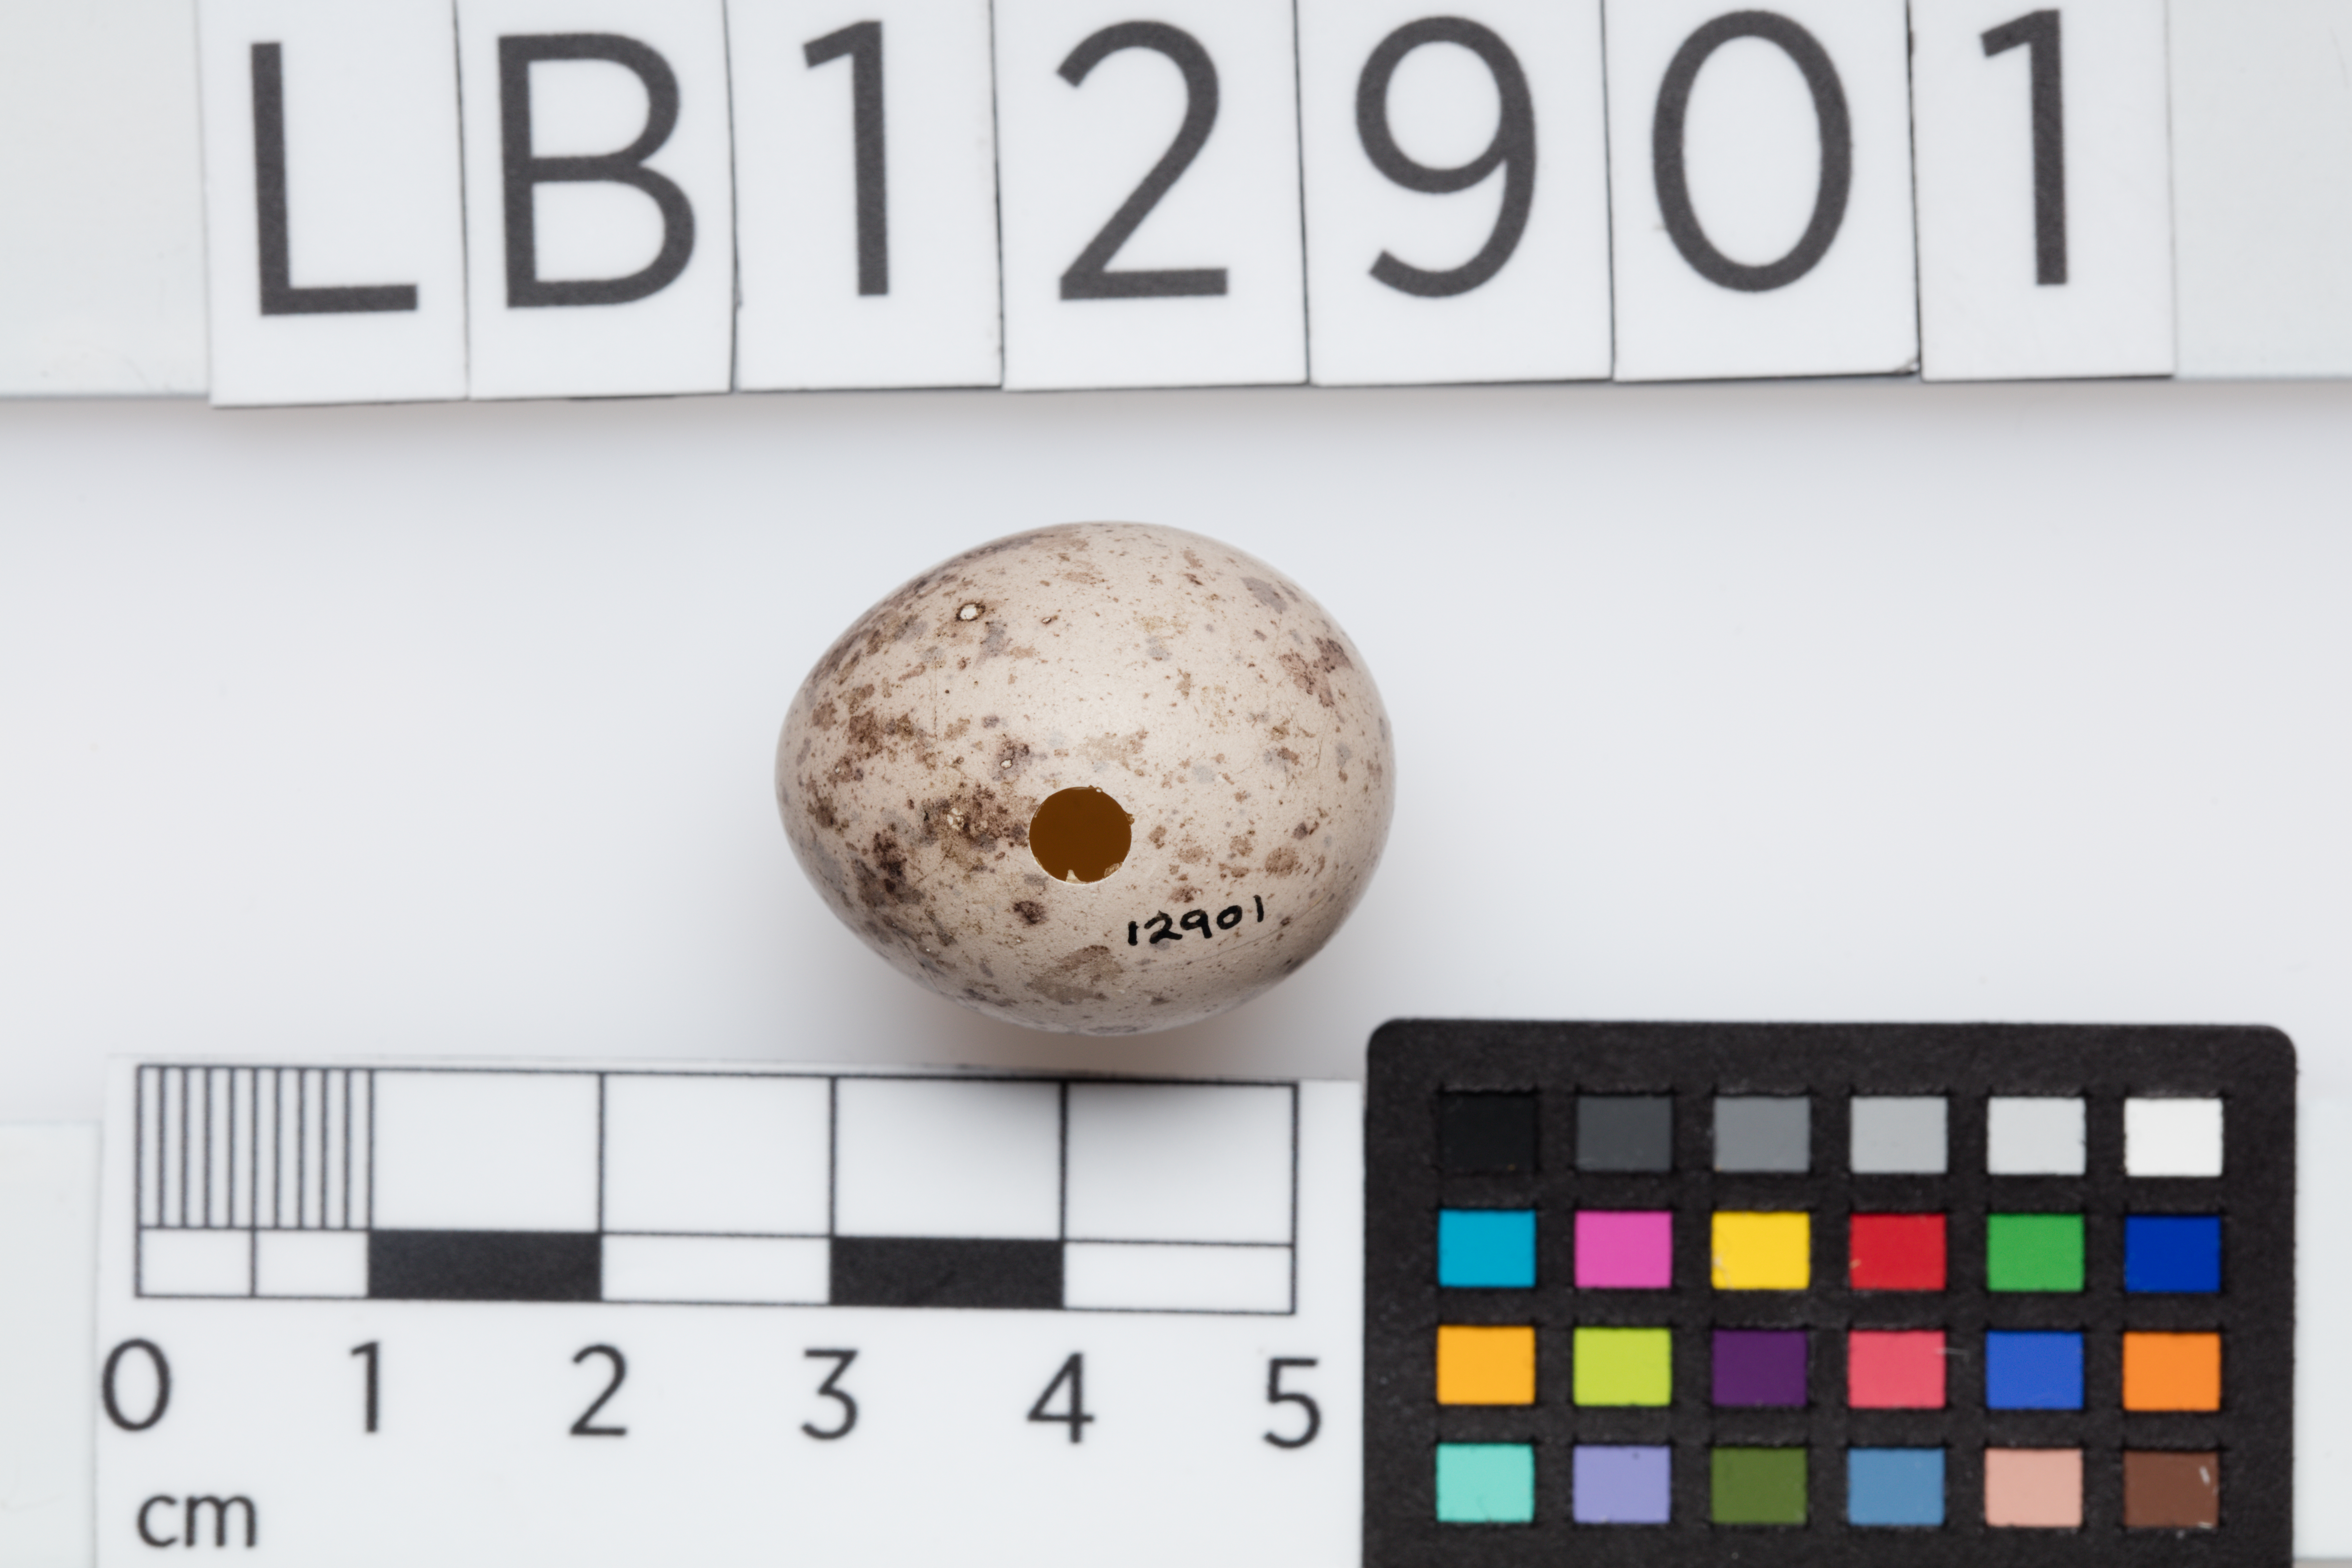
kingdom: Animalia
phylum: Chordata
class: Aves
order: Passeriformes
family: Callaeatidae
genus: Philesturnus
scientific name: Philesturnus carunculatus
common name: South island saddleback
